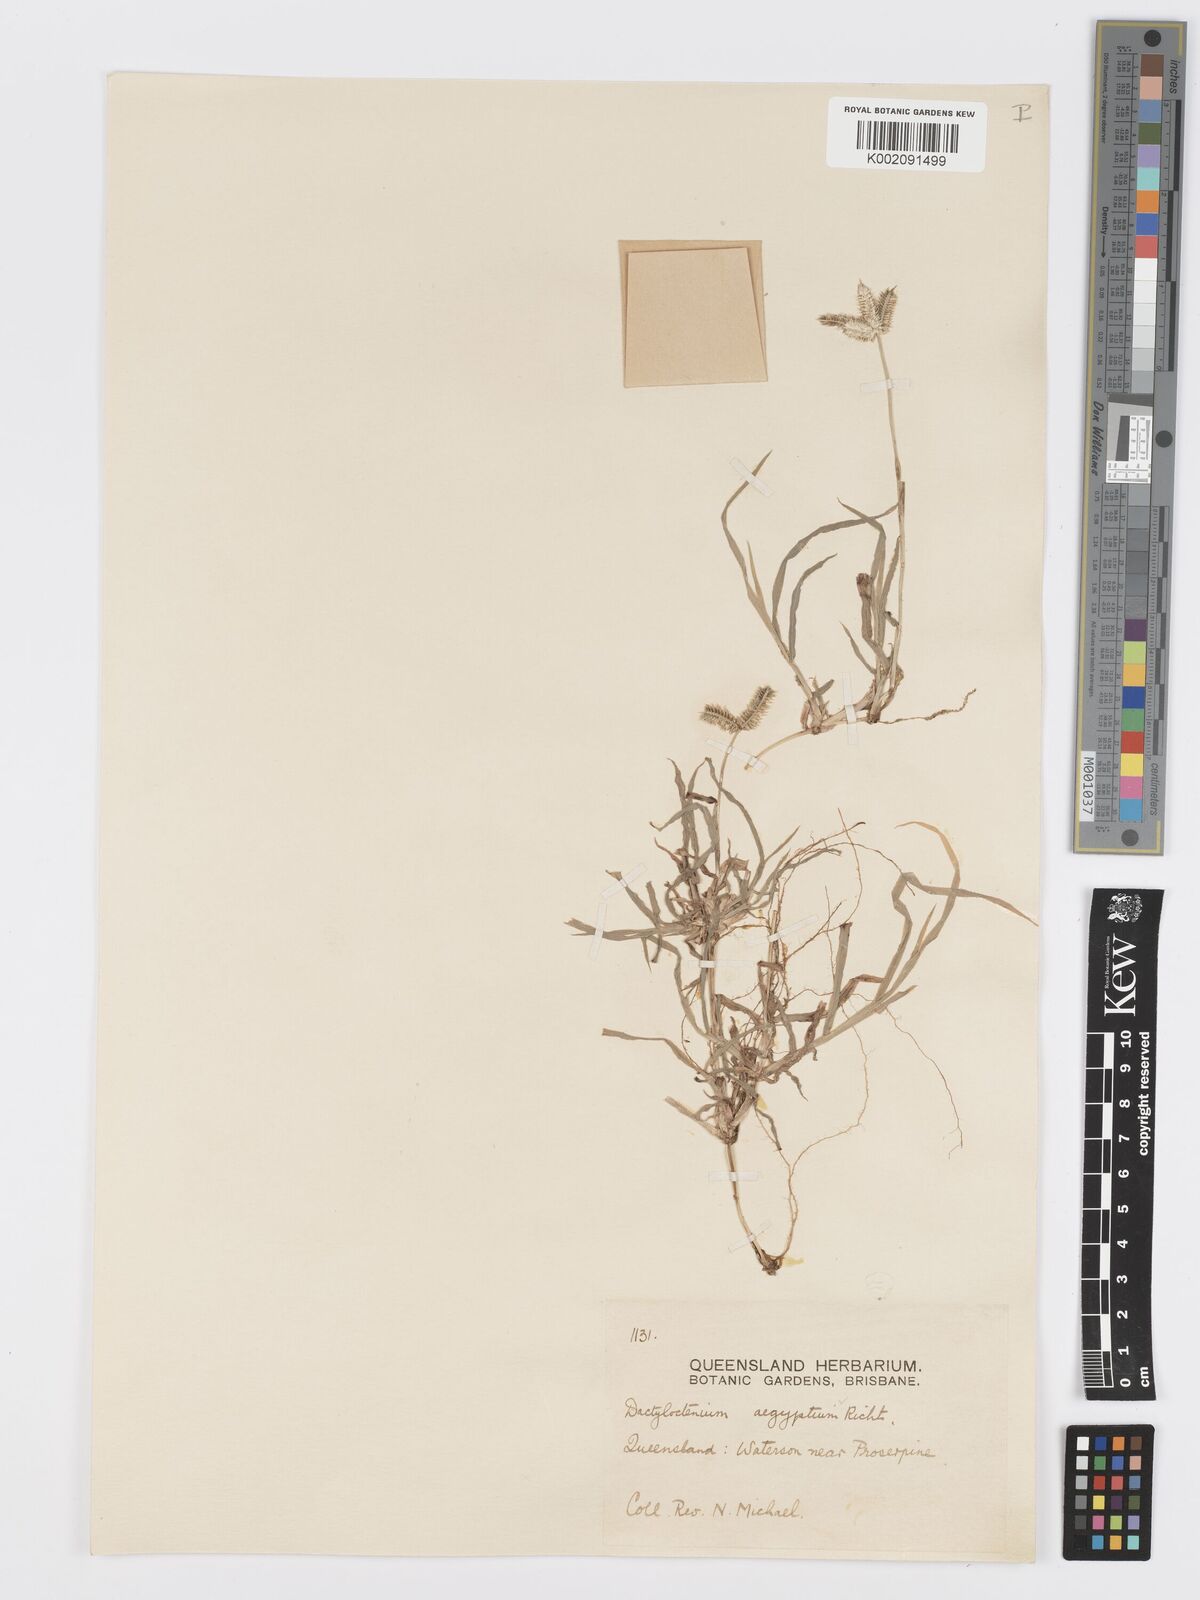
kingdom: Plantae
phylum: Tracheophyta
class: Liliopsida
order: Poales
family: Poaceae
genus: Dactyloctenium
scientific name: Dactyloctenium aegyptium
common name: Egyptian grass
